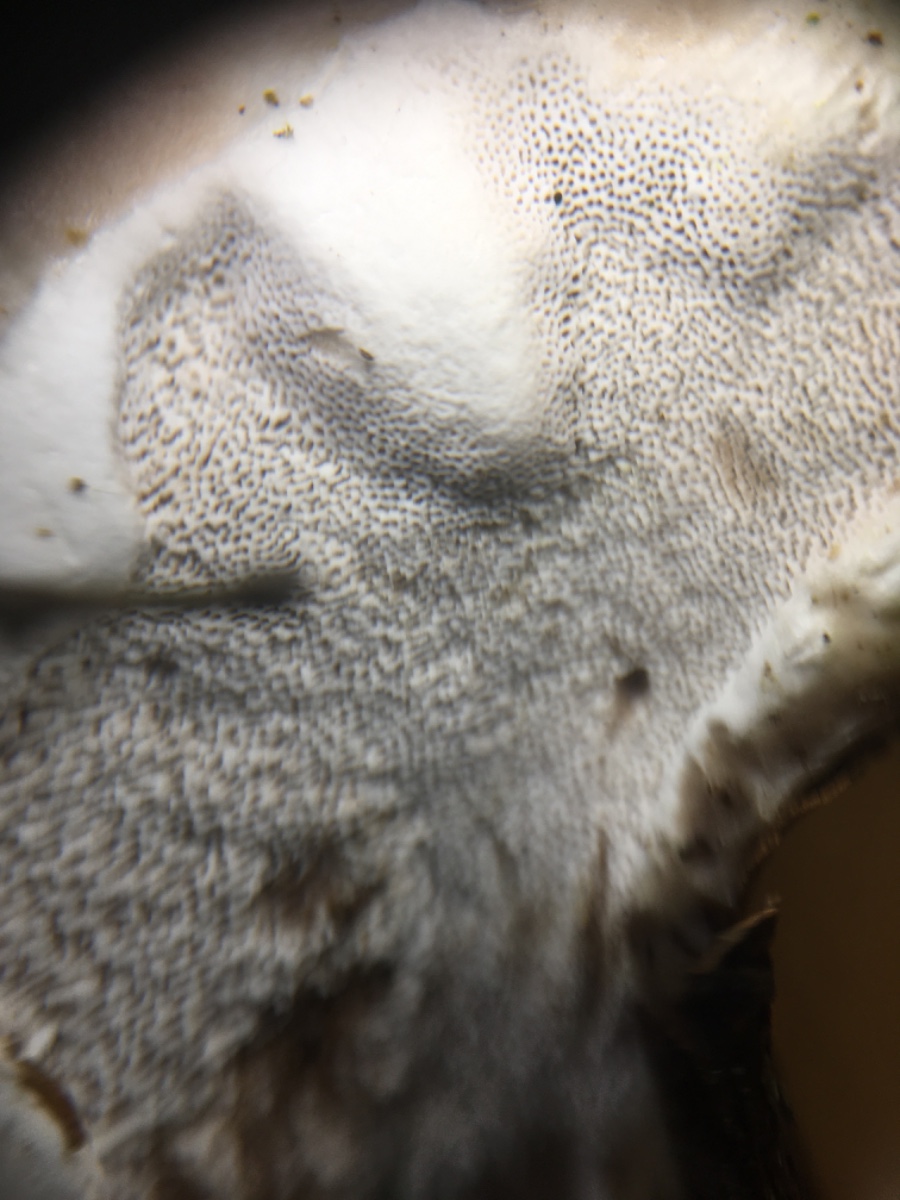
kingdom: Fungi
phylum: Basidiomycota
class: Agaricomycetes
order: Polyporales
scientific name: Polyporales
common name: poresvampordenen
